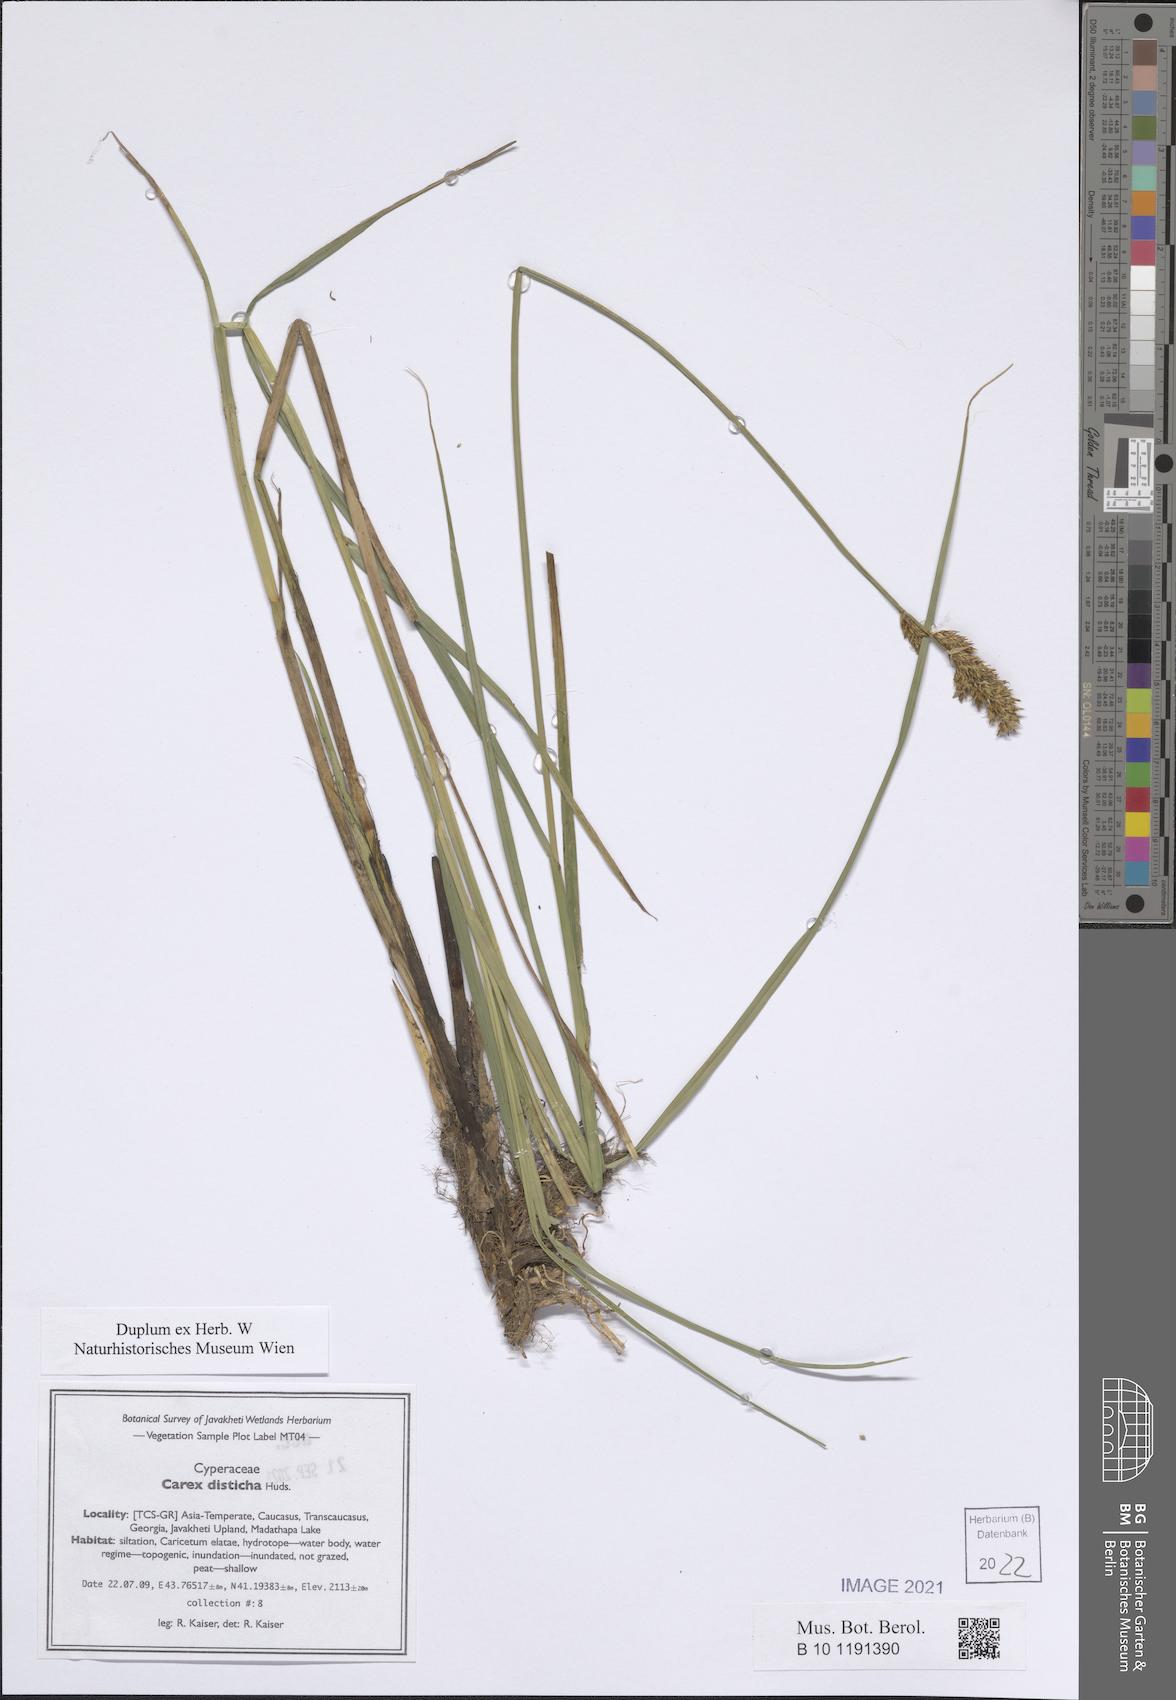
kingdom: Plantae
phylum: Tracheophyta
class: Liliopsida
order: Poales
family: Cyperaceae
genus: Carex
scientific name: Carex disticha
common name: Brown sedge
